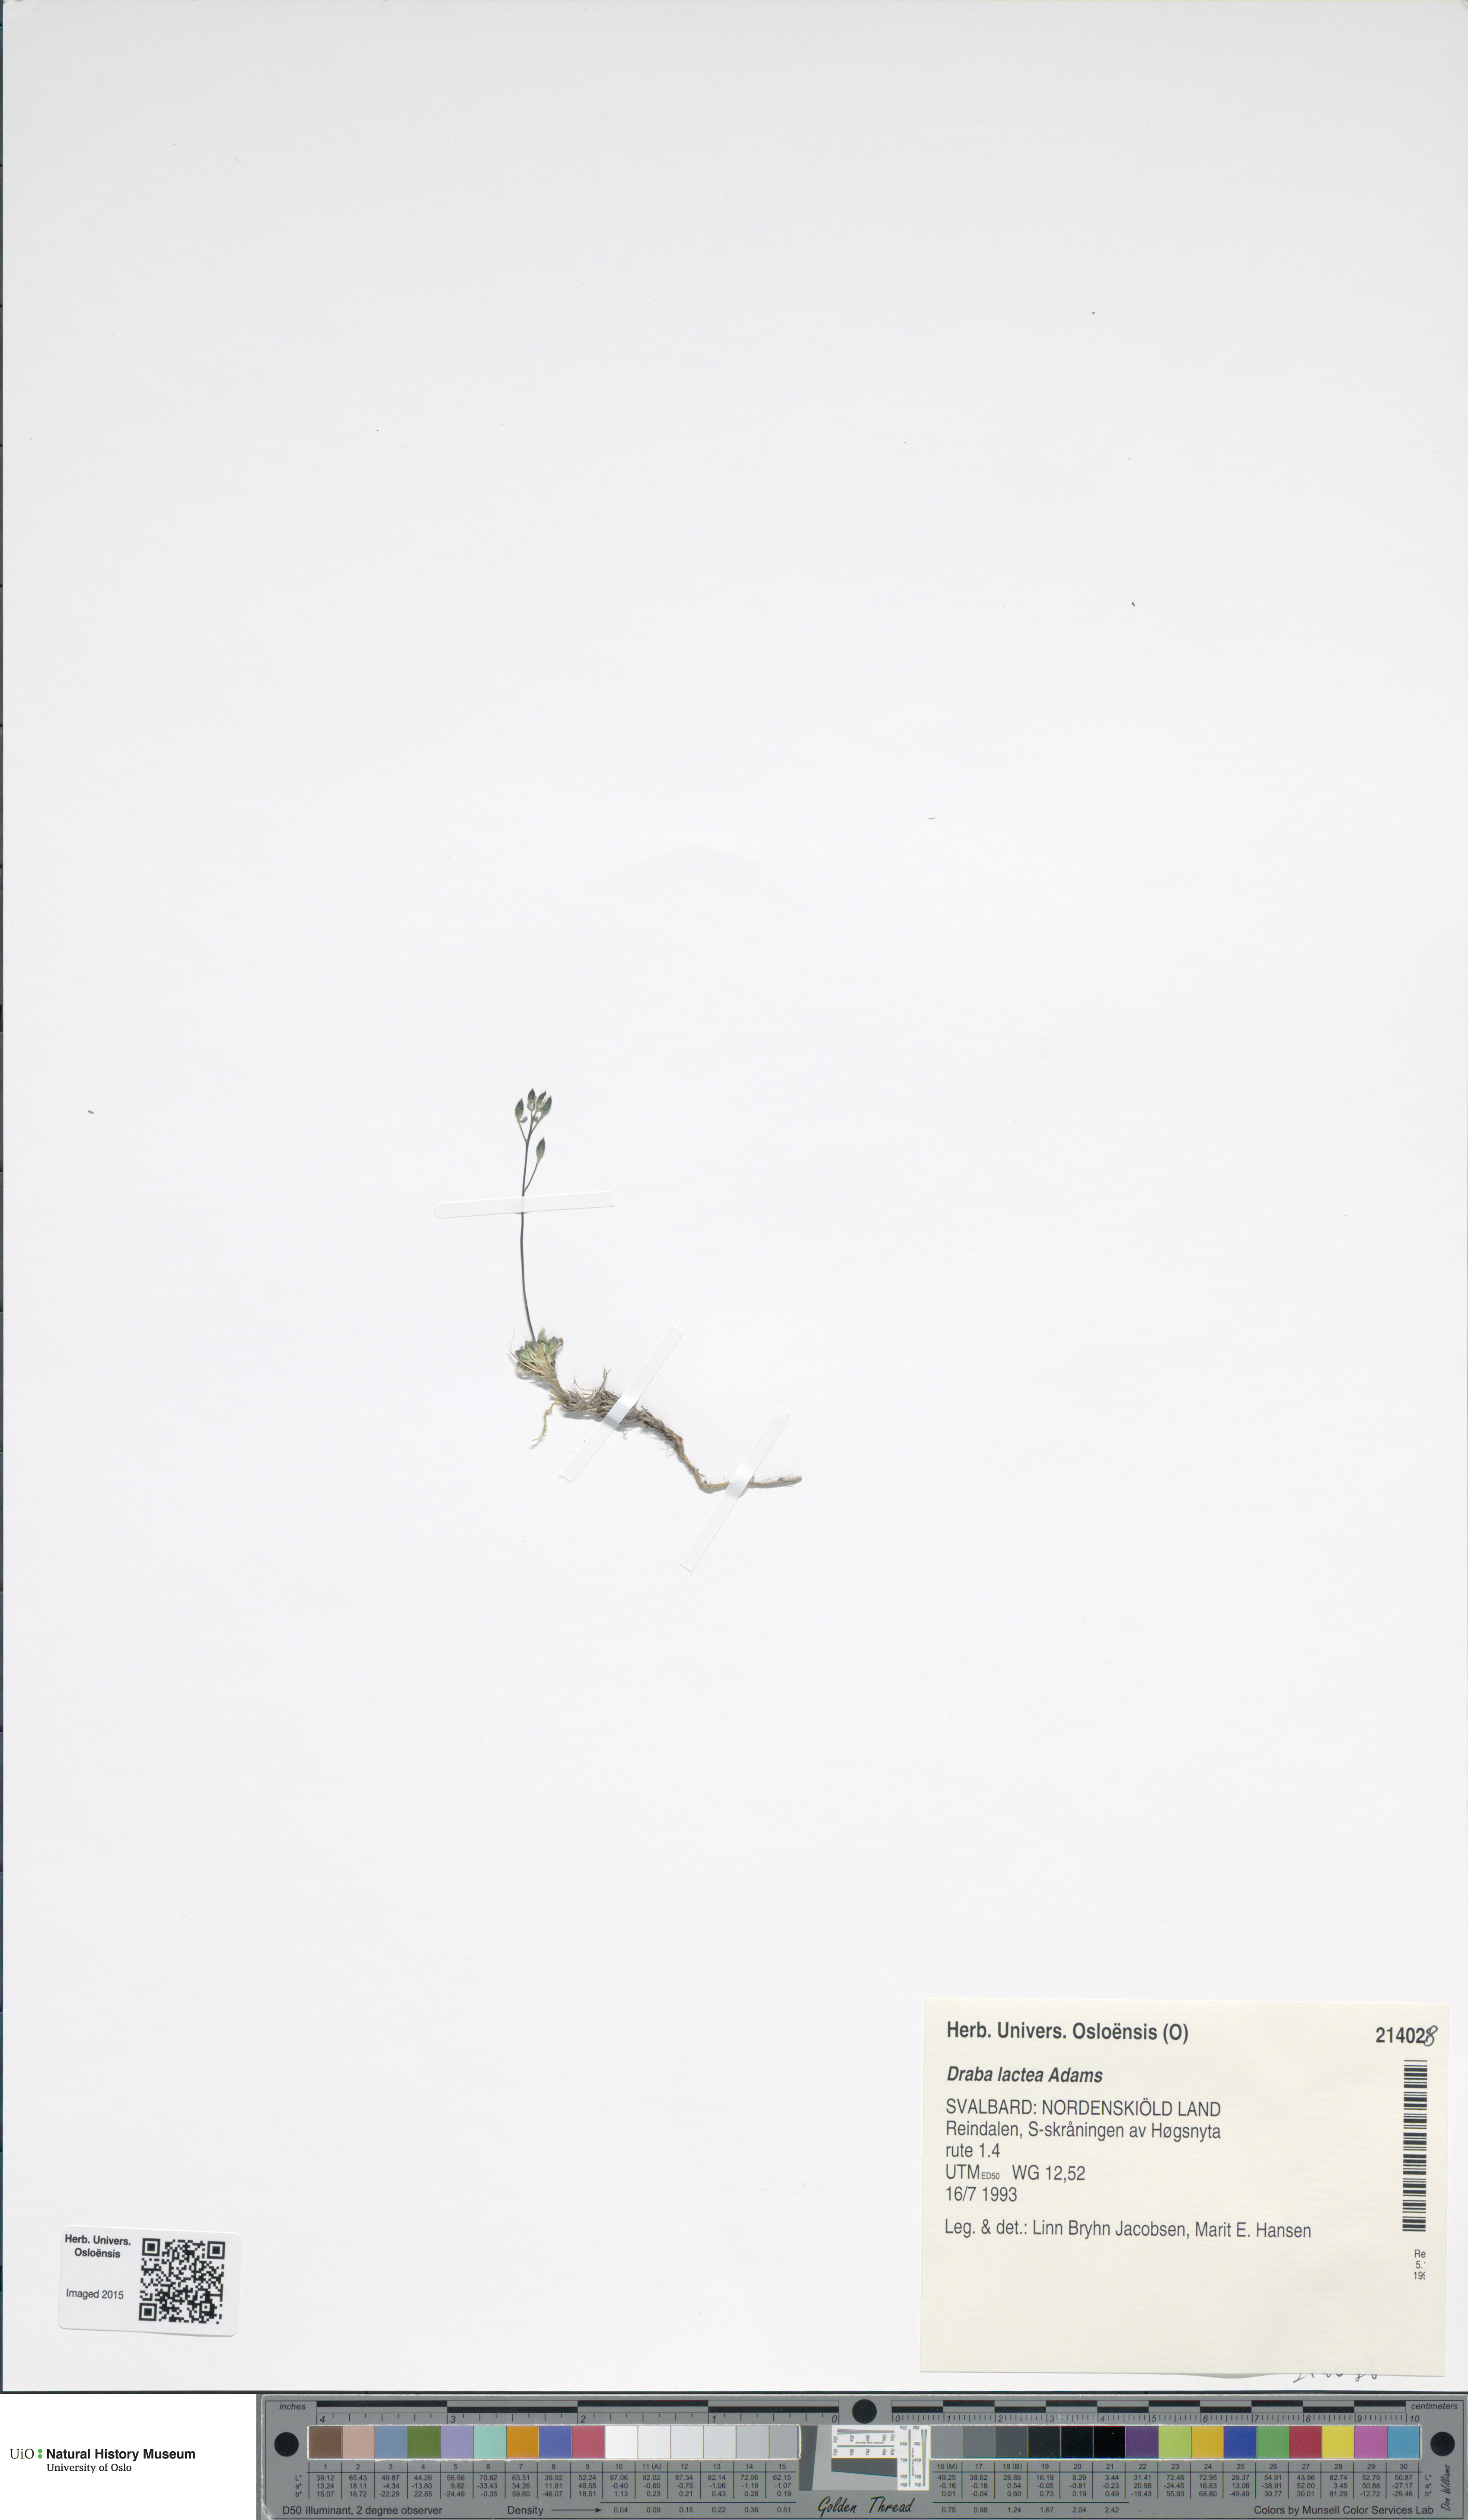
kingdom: Plantae
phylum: Tracheophyta
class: Magnoliopsida
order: Brassicales
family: Brassicaceae
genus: Draba
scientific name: Draba lactea
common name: Milky draba
